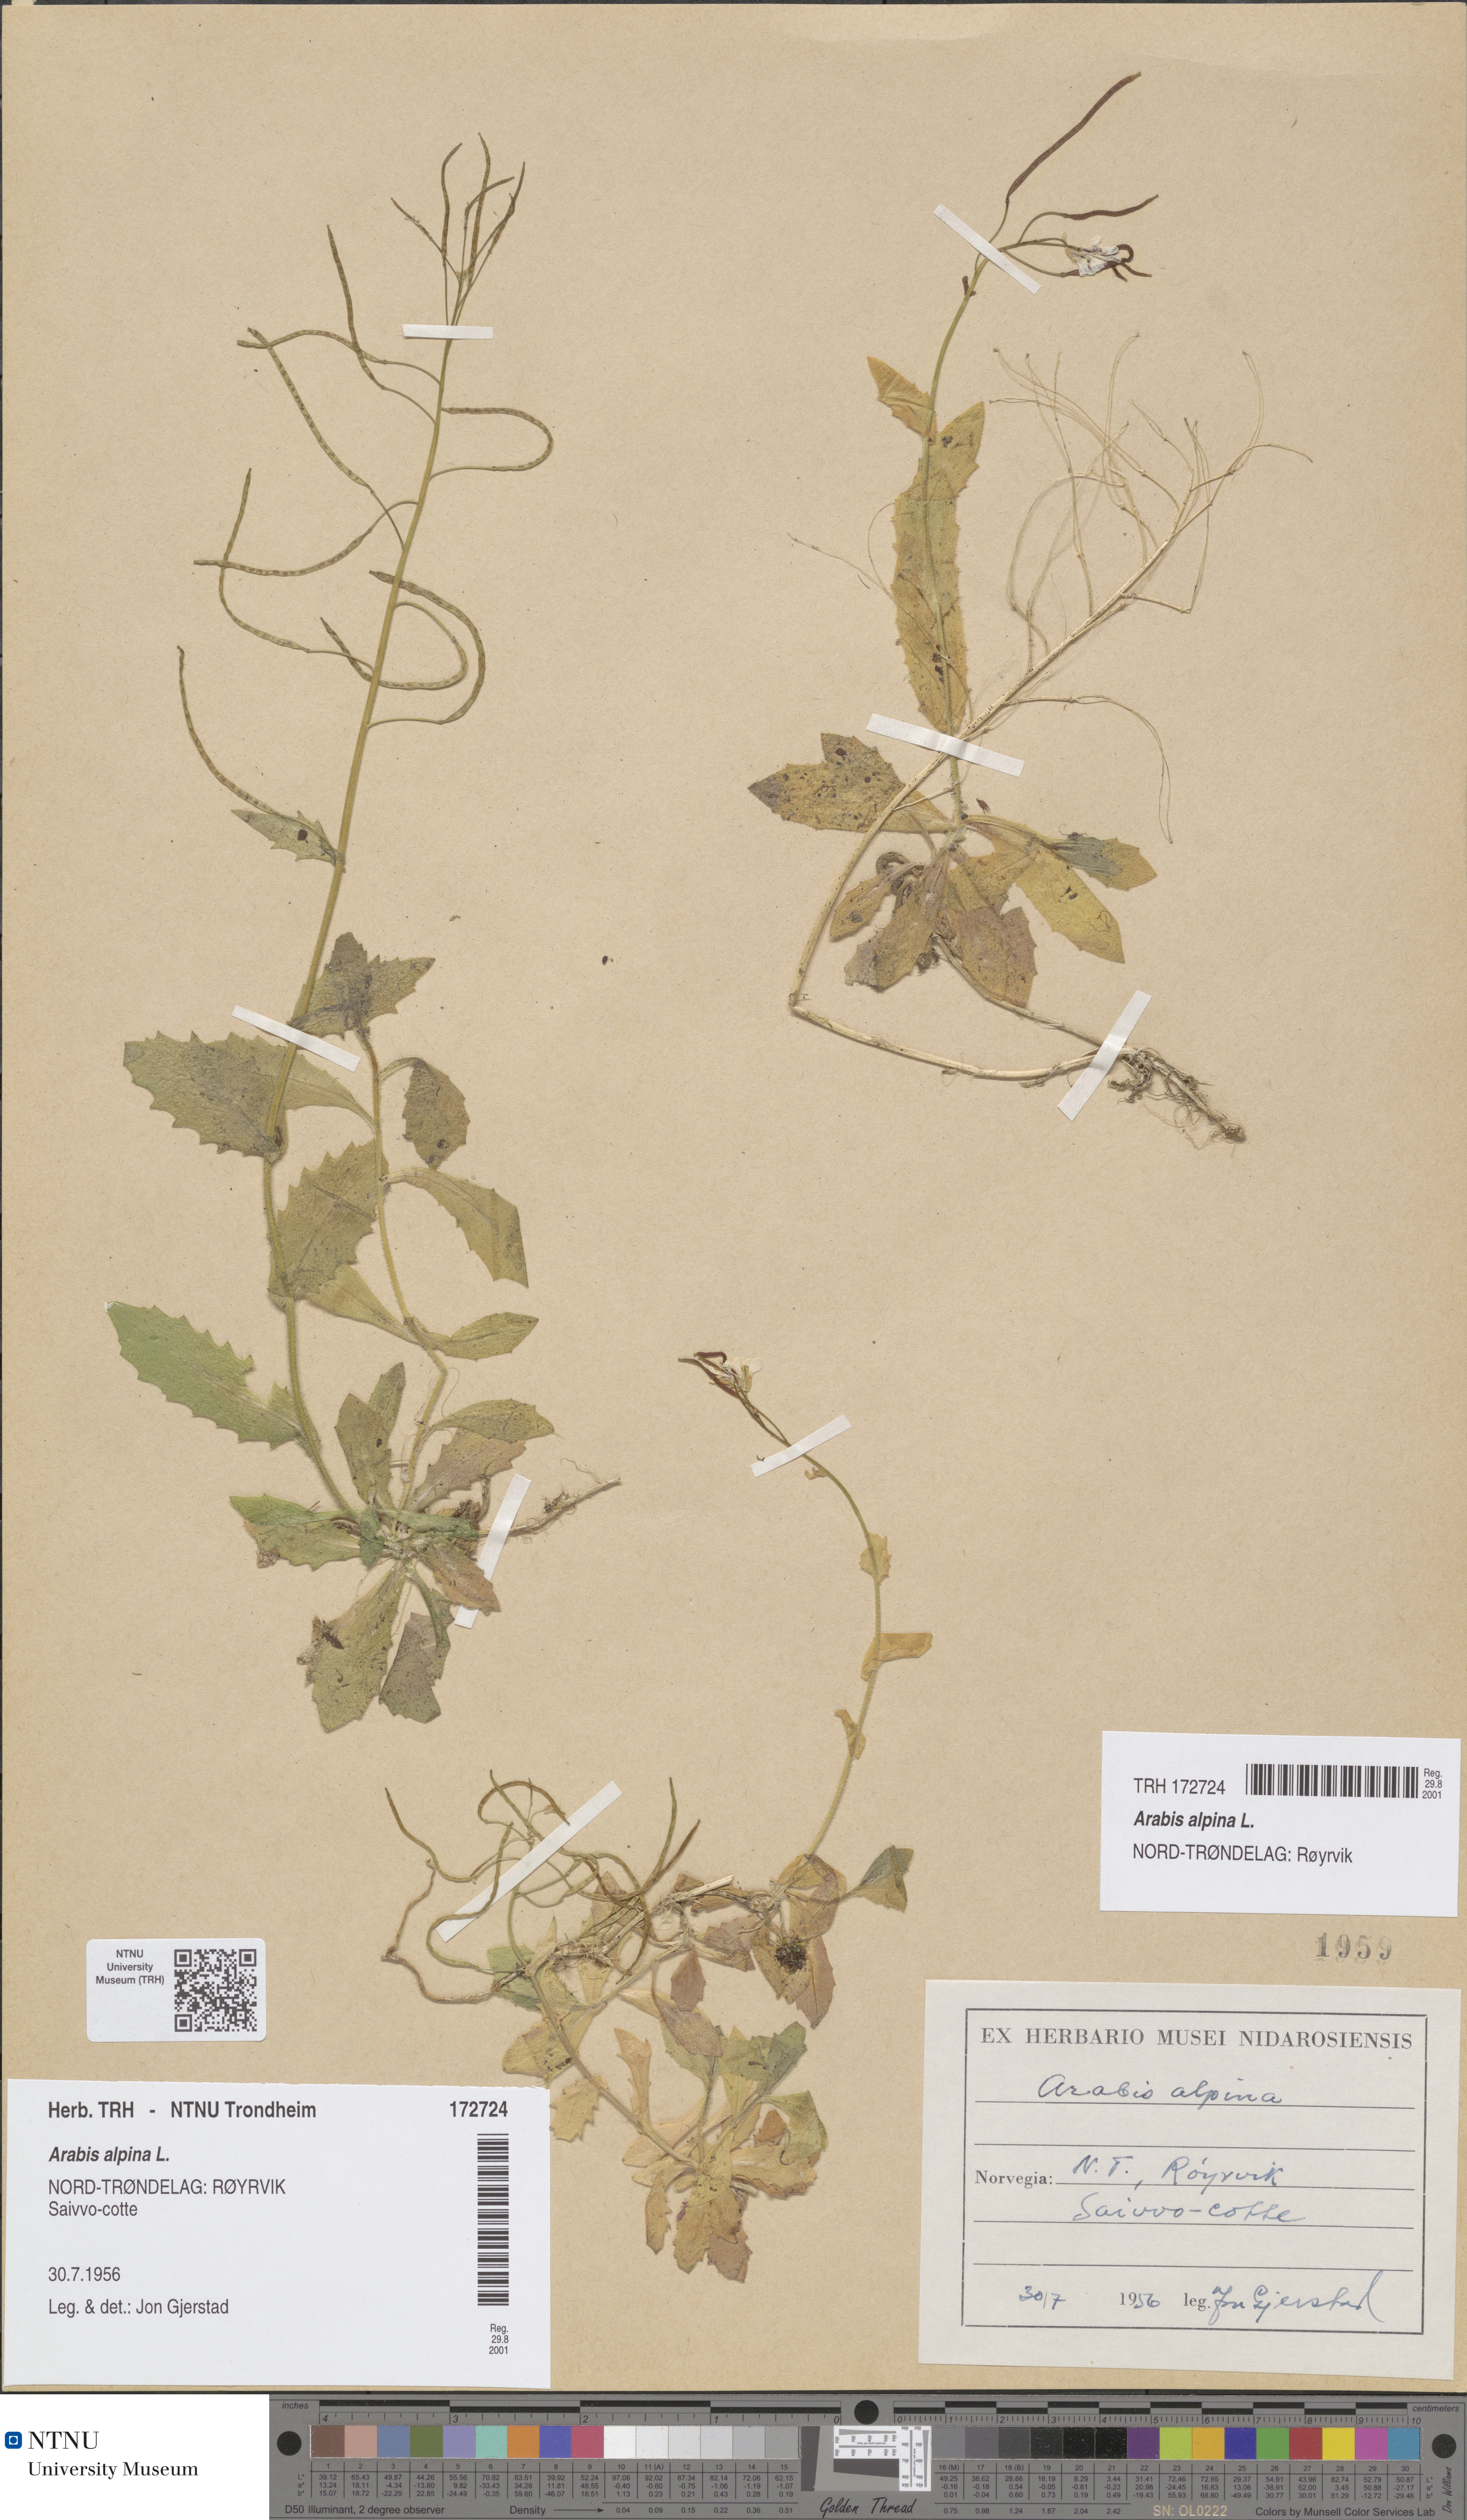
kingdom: Plantae
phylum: Tracheophyta
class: Magnoliopsida
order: Brassicales
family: Brassicaceae
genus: Arabis
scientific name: Arabis alpina
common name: Alpine rock-cress
